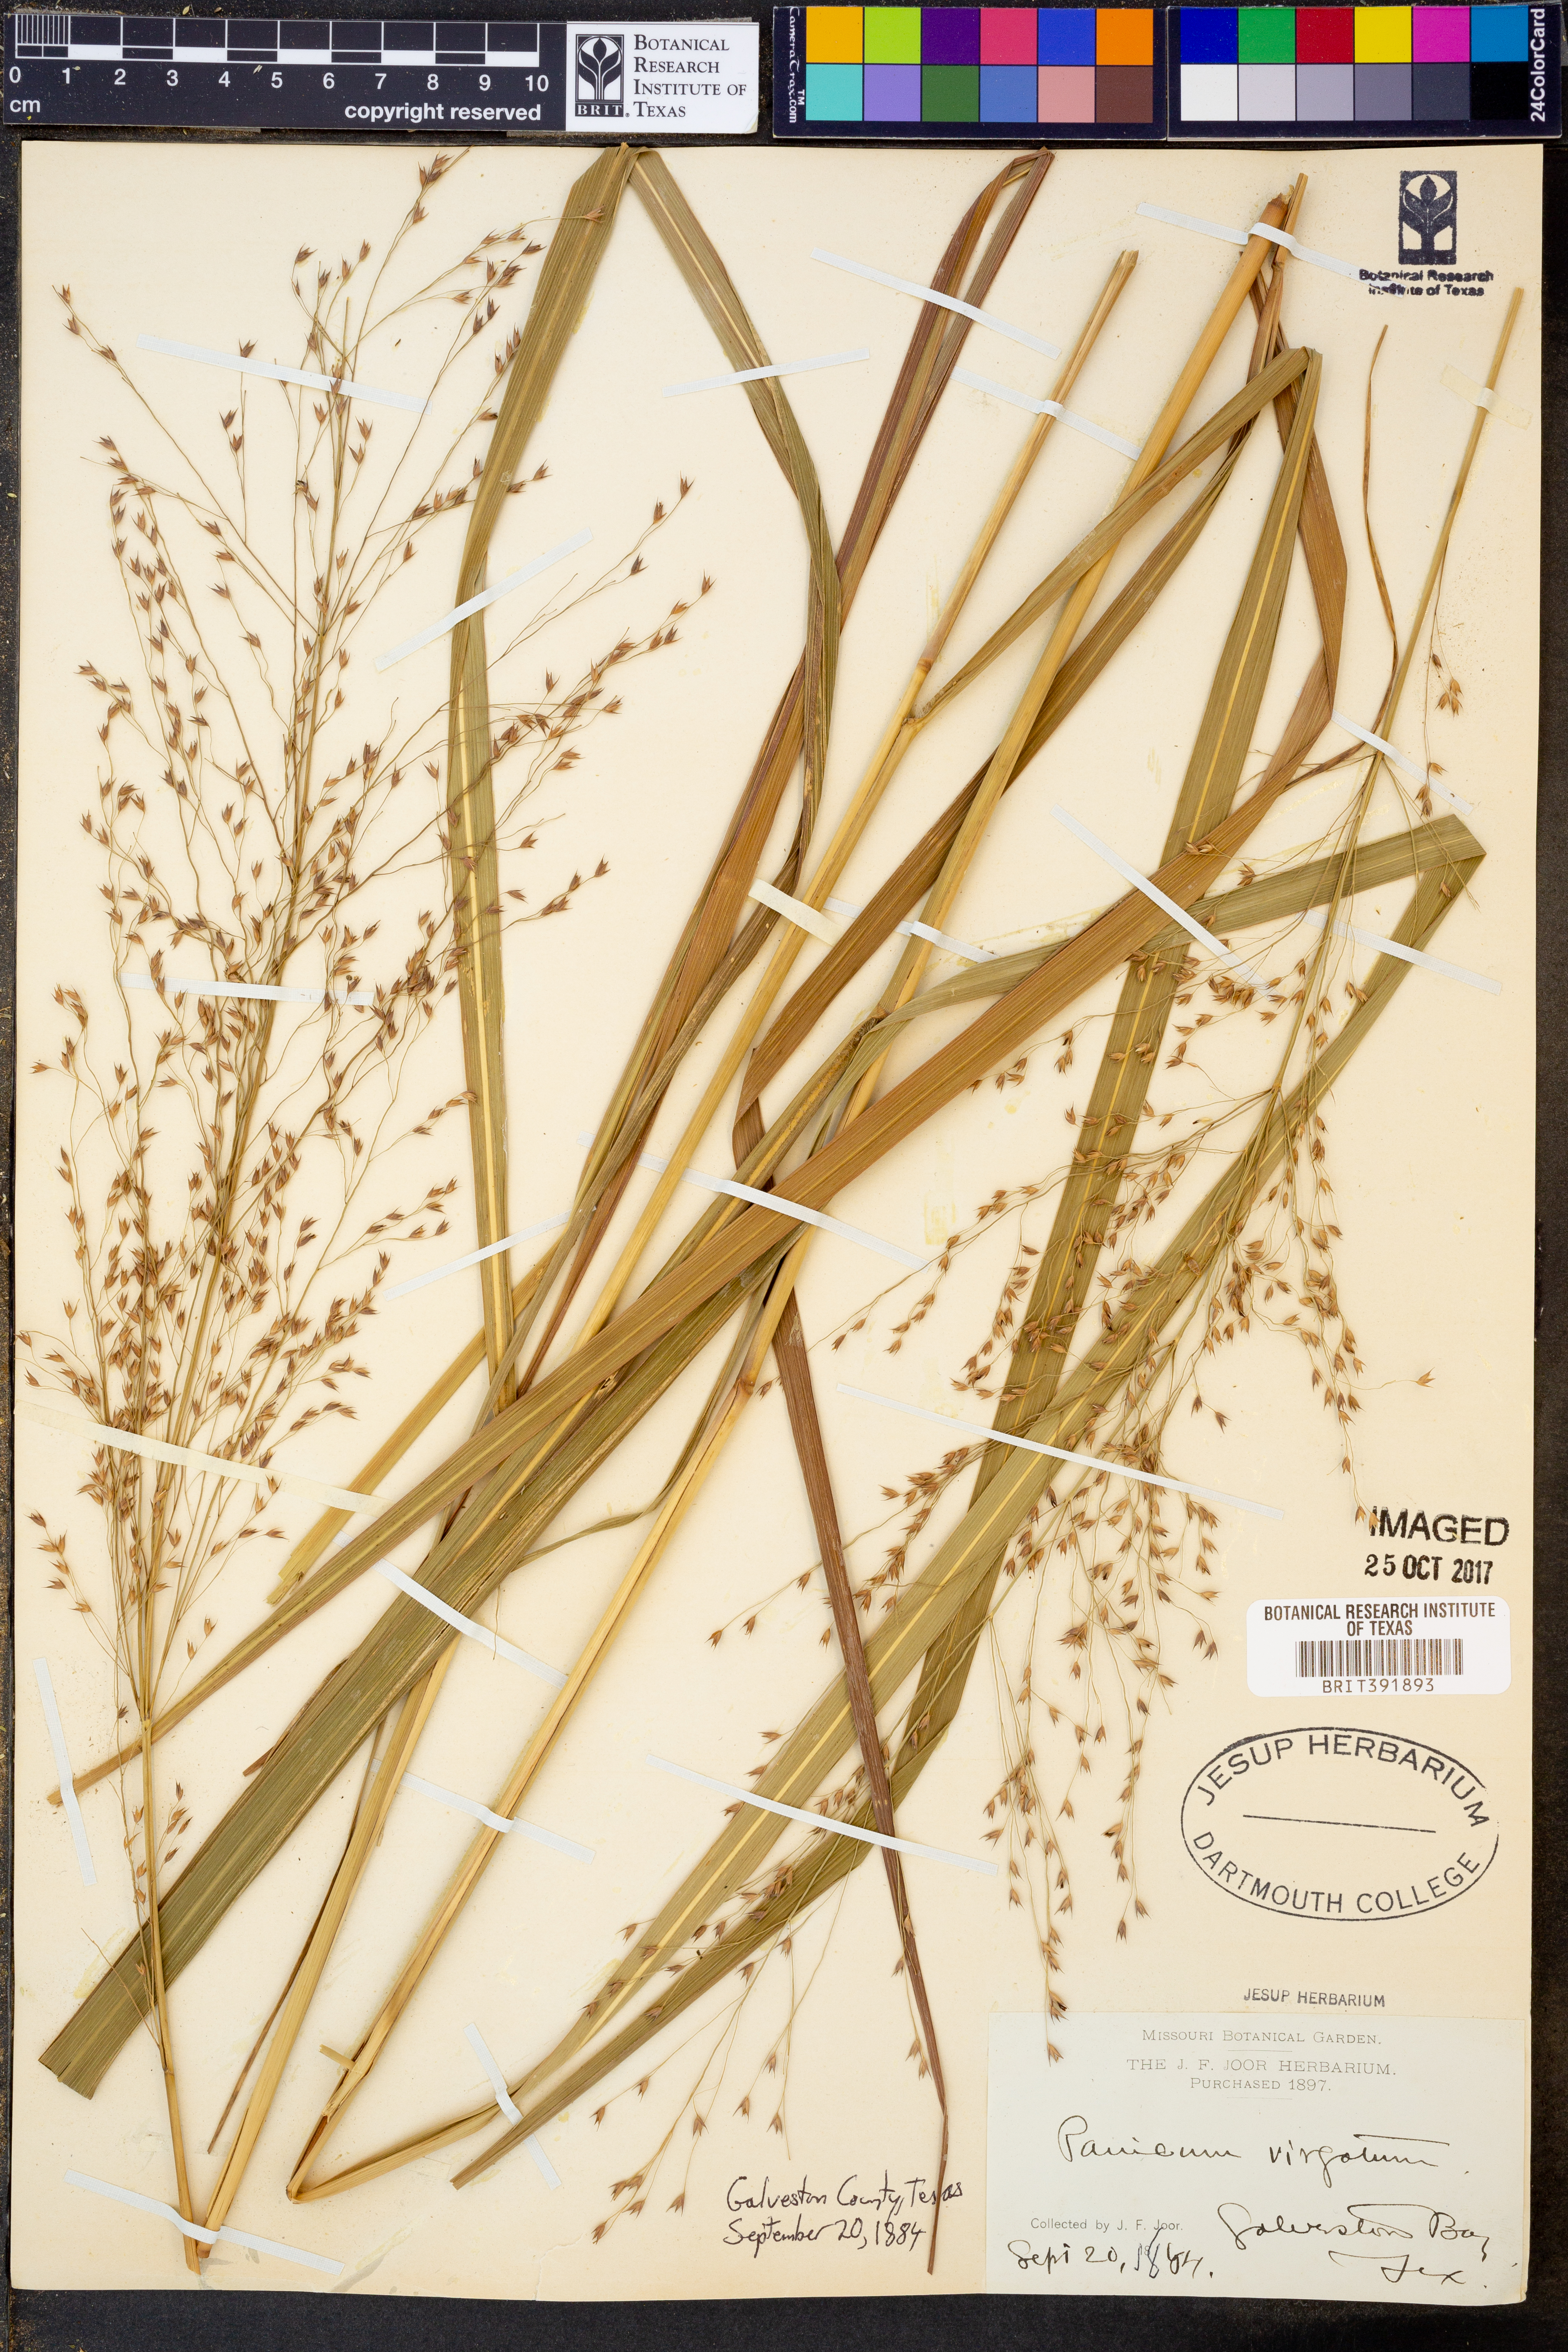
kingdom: Plantae
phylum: Tracheophyta
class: Liliopsida
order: Poales
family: Poaceae
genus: Panicum
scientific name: Panicum virgatum
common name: Switchgrass
